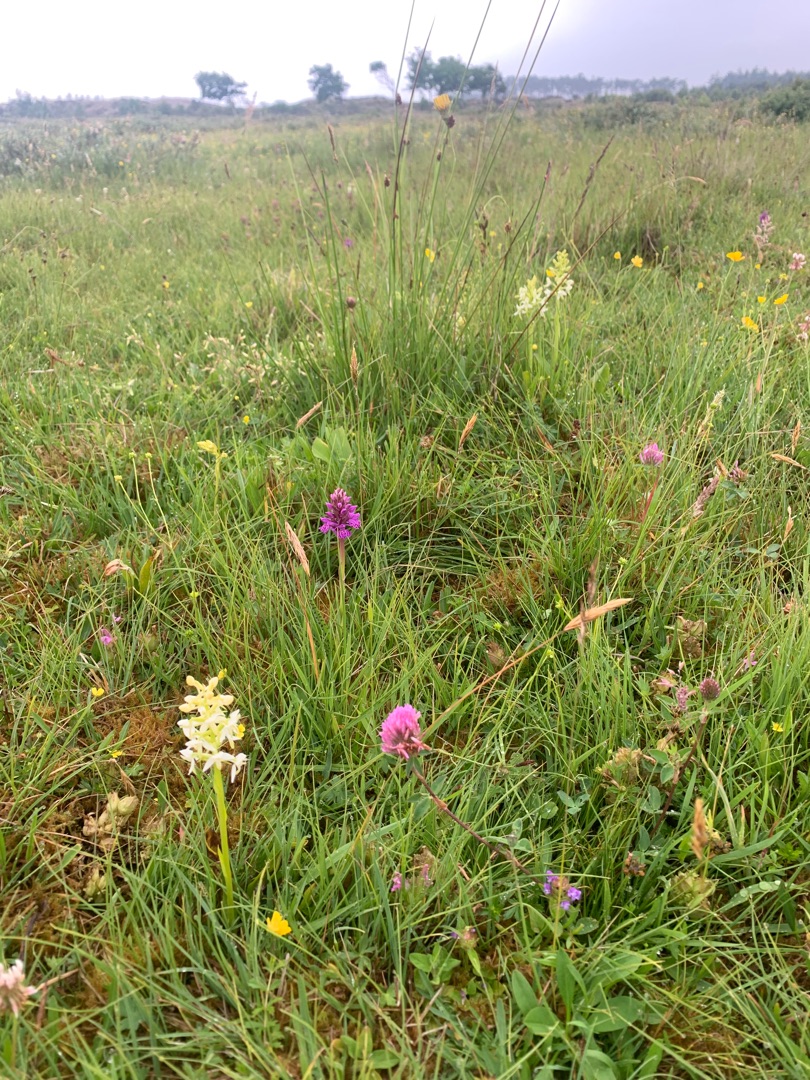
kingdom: Plantae
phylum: Tracheophyta
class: Liliopsida
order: Asparagales
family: Orchidaceae
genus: Platanthera
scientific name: Platanthera bifolia
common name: Bakke-gøgelilje
